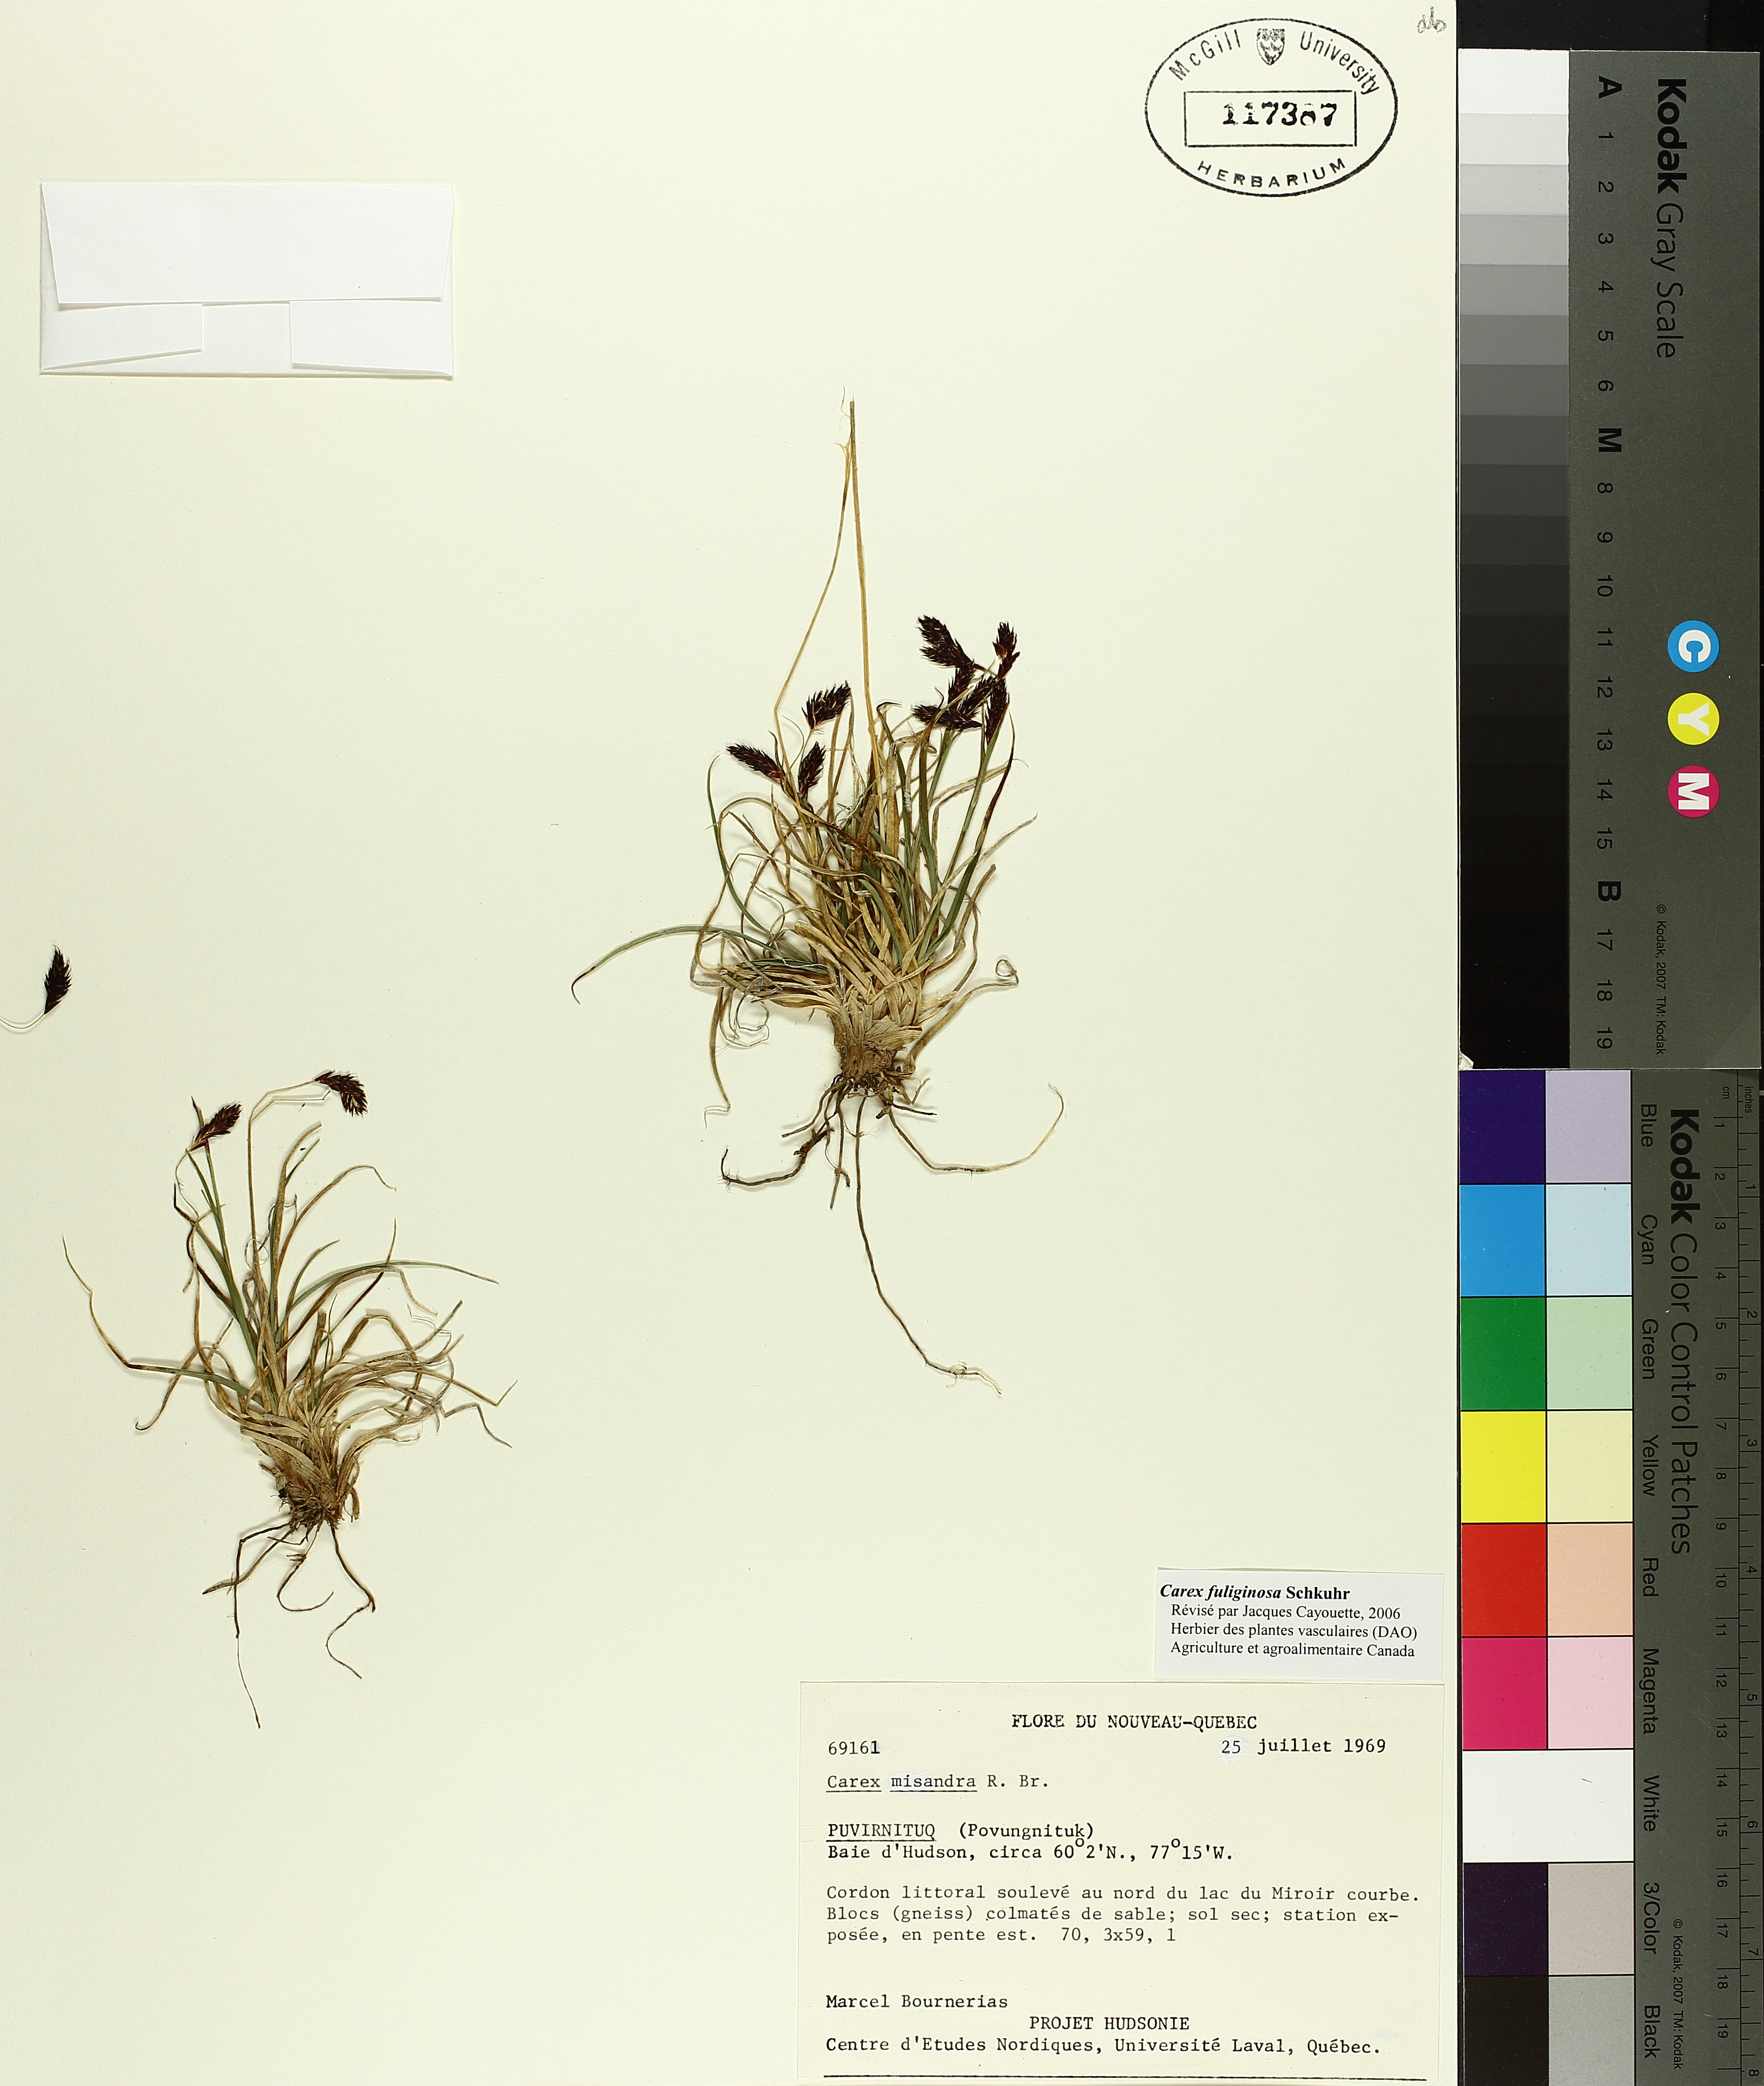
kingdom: Plantae
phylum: Tracheophyta
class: Liliopsida
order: Poales
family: Cyperaceae
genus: Carex
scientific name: Carex fuliginosa
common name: Few-flowered sedge
